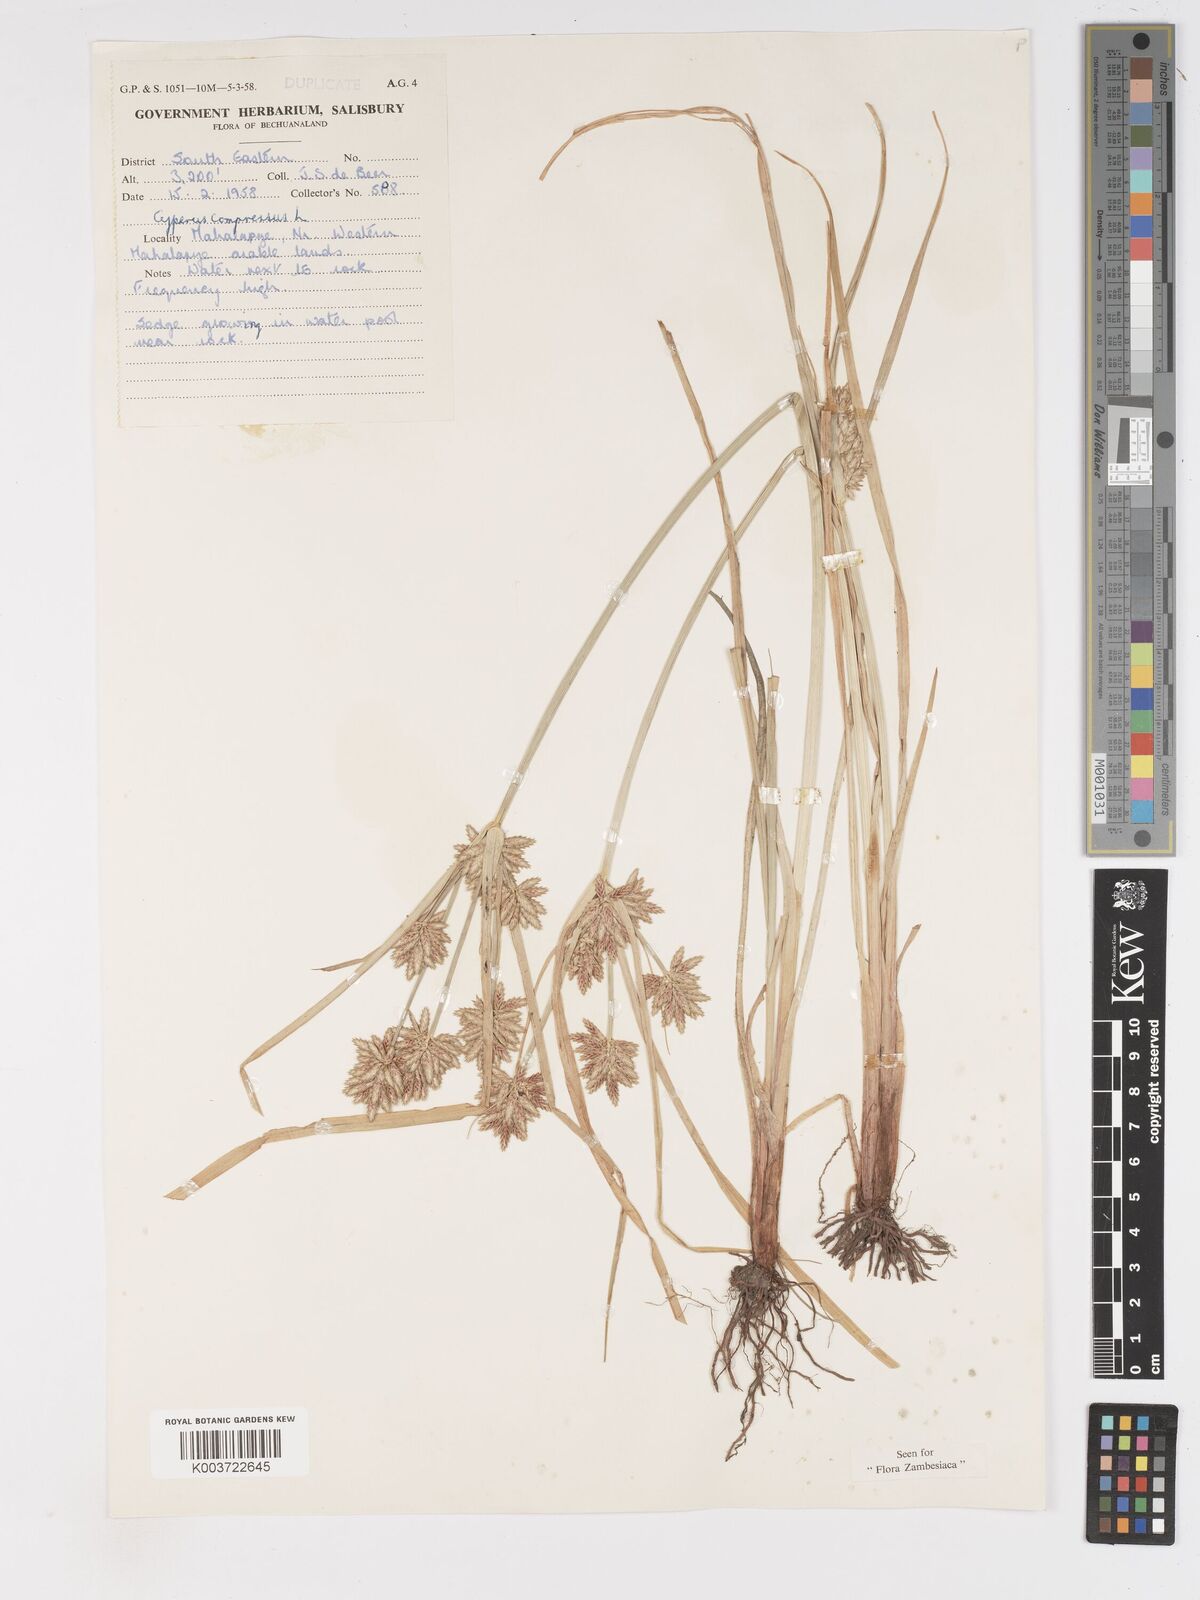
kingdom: Plantae
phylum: Tracheophyta
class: Liliopsida
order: Poales
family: Cyperaceae
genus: Cyperus
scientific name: Cyperus compressus
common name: Poorland flatsedge
